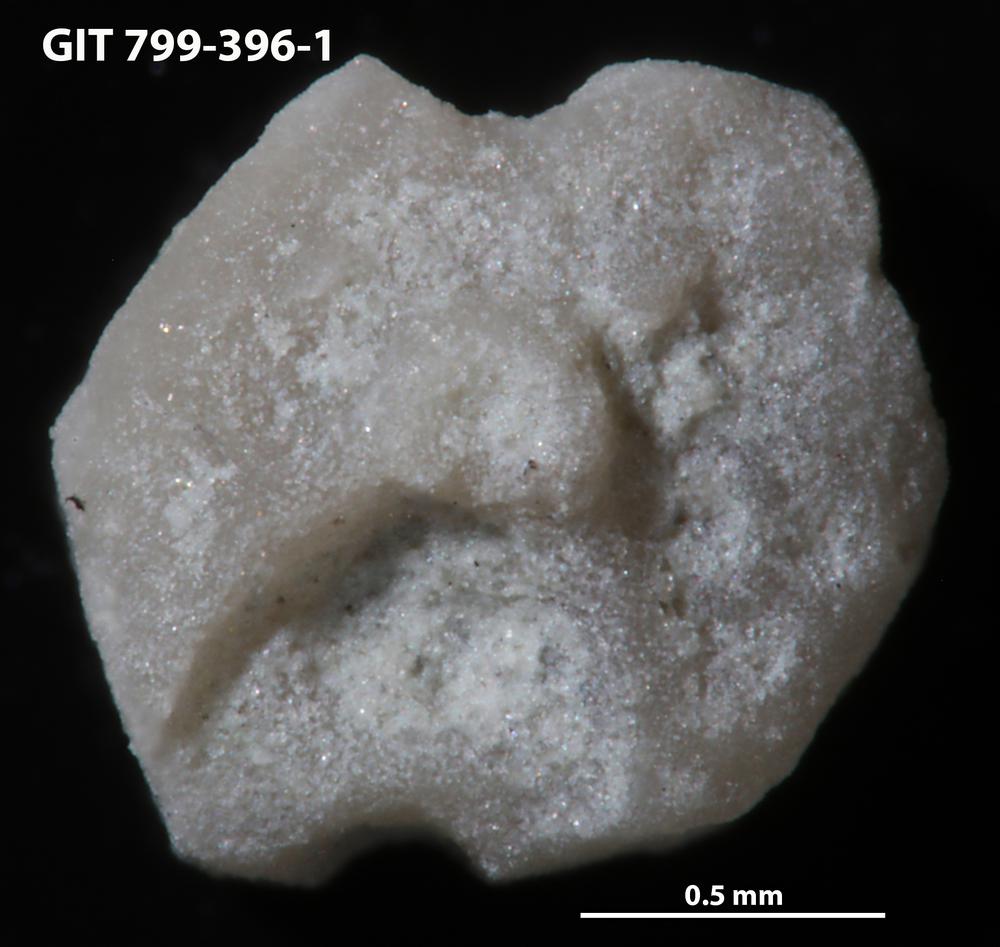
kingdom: Animalia
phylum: Echinodermata
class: Echinoidea
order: Bothriocidaroida
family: Bothriocidaridae
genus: Neobothriocidaris
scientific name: Neobothriocidaris
